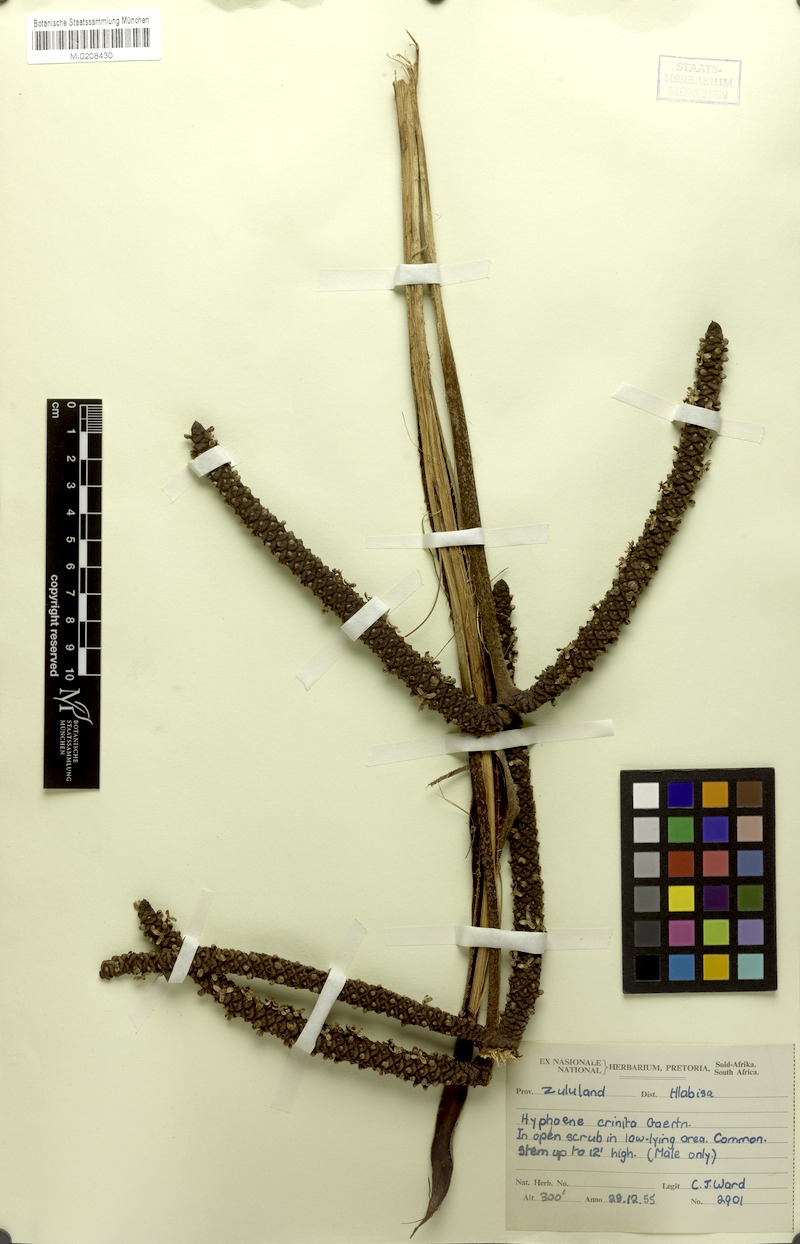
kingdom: Plantae
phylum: Tracheophyta
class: Liliopsida
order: Arecales
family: Arecaceae
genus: Hyphaene
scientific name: Hyphaene thebaica
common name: Doum palm
